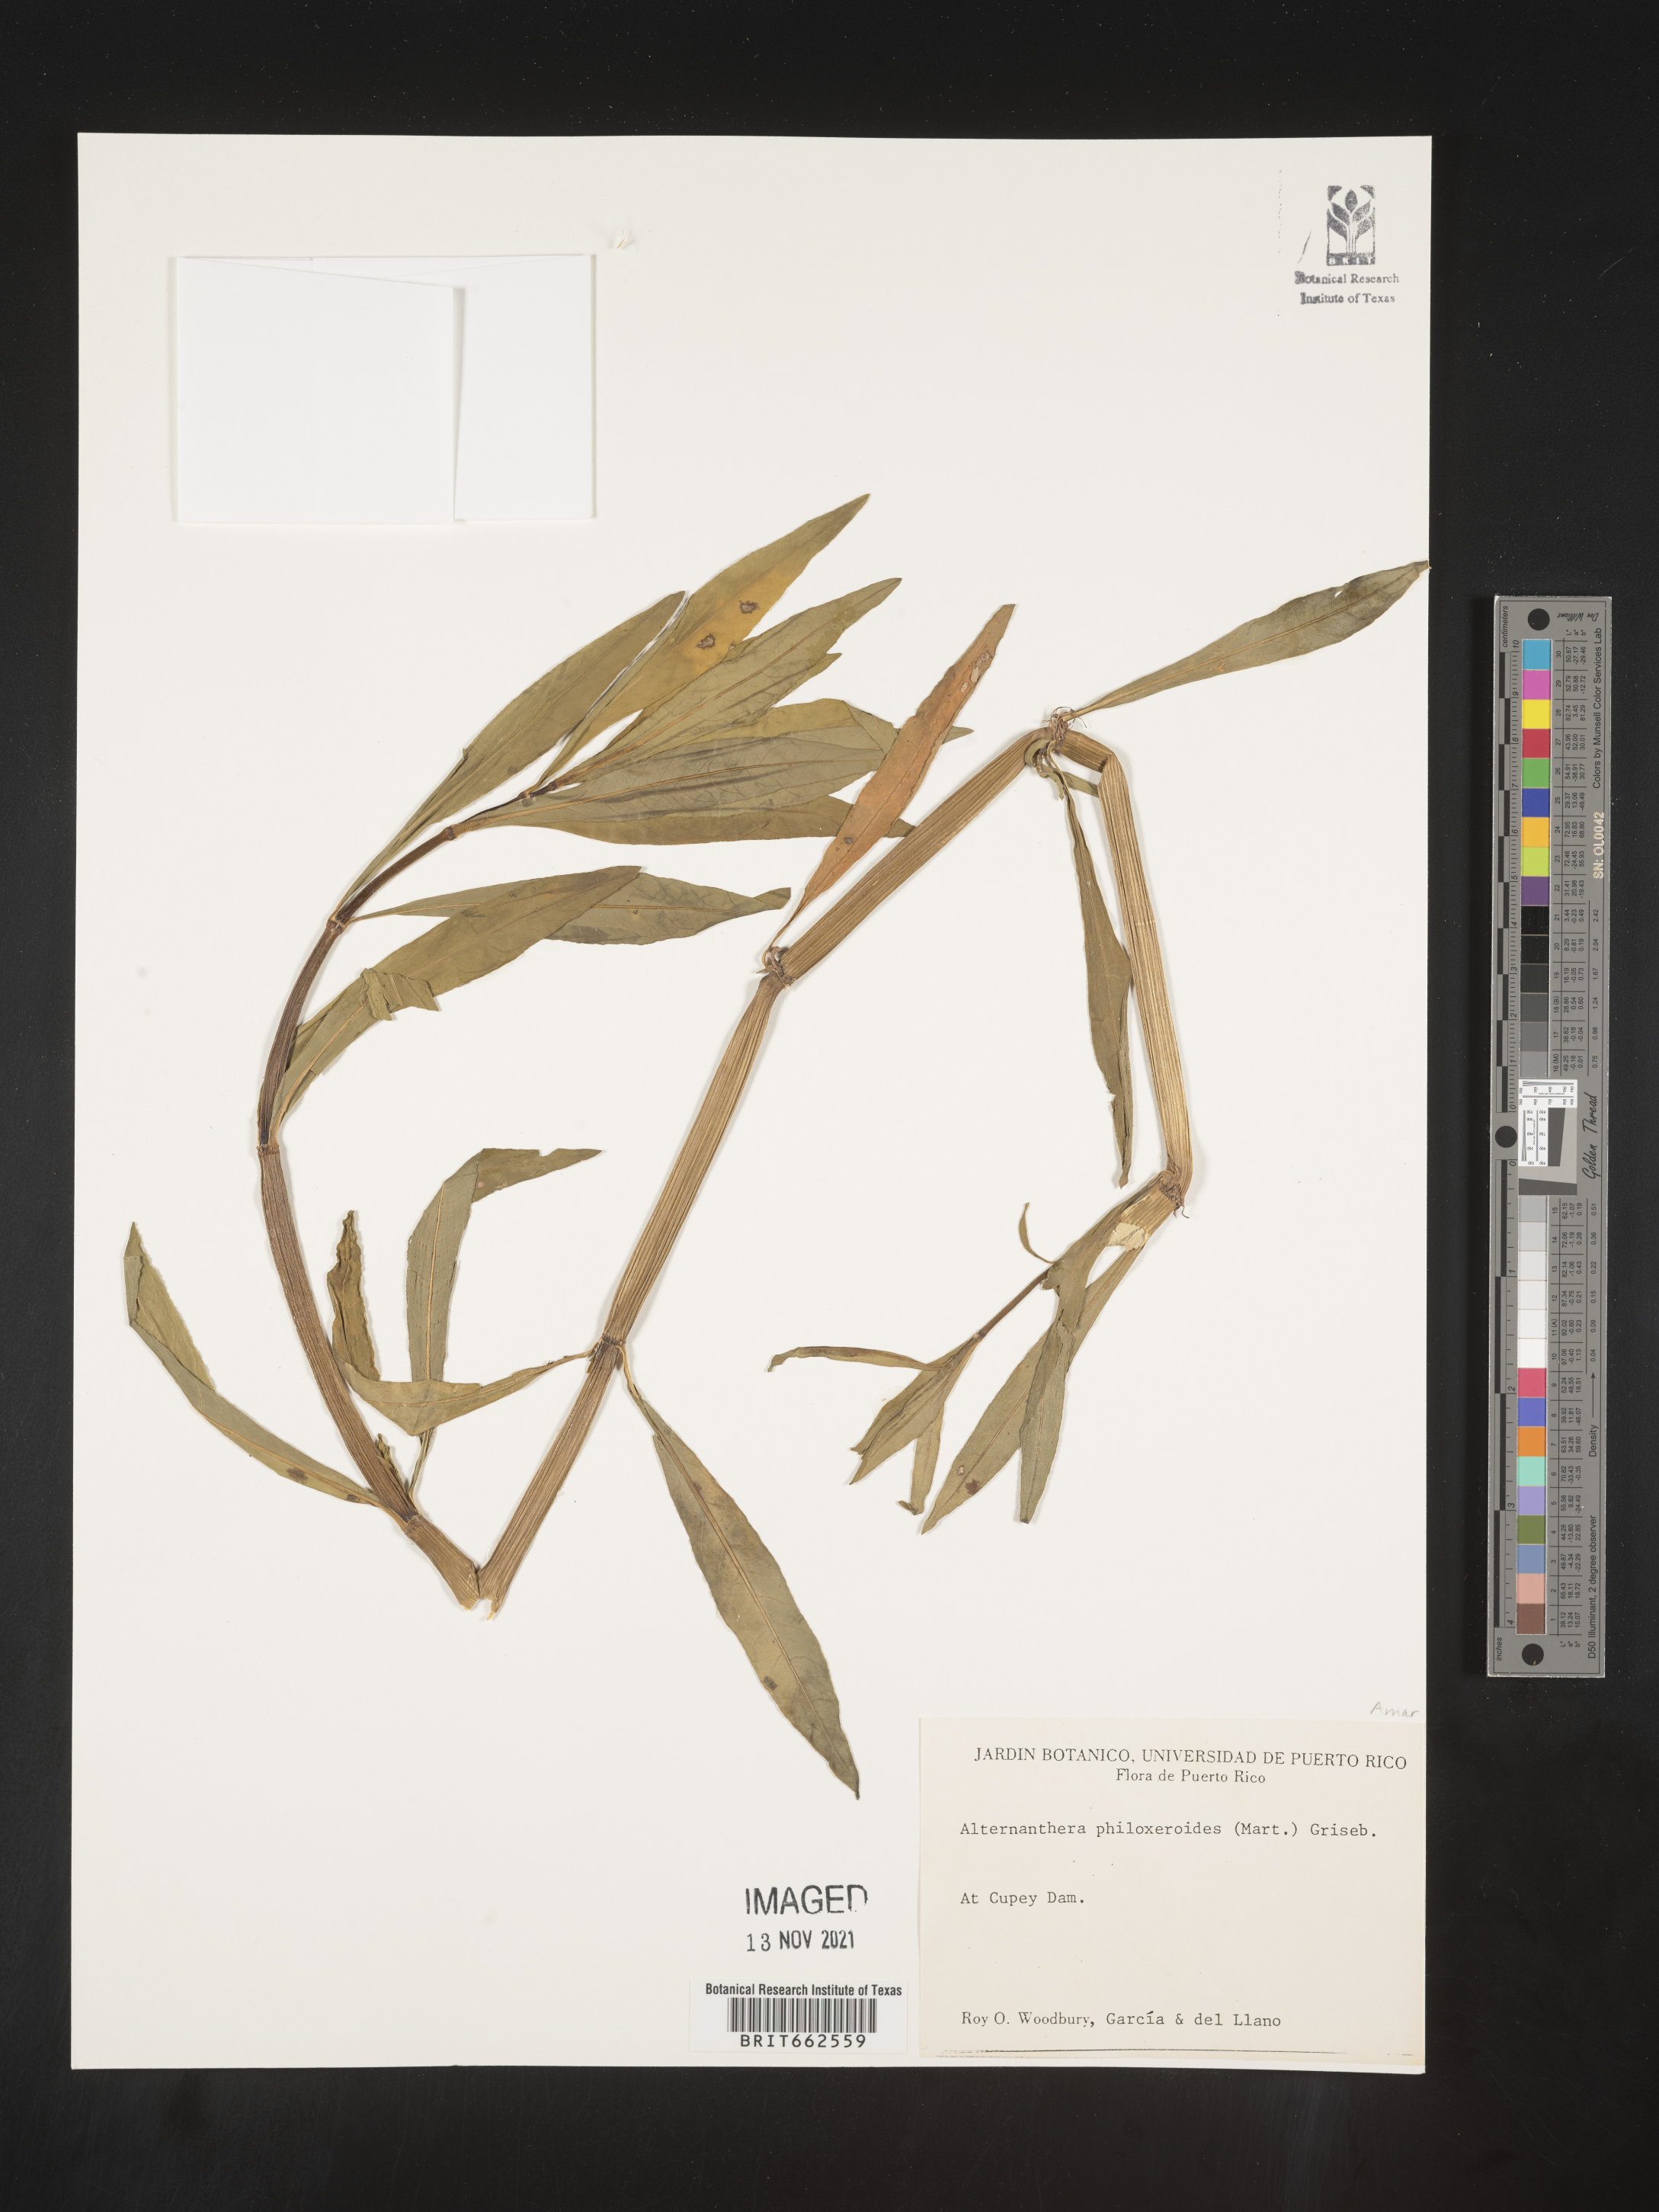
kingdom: Plantae
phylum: Tracheophyta
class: Magnoliopsida
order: Caryophyllales
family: Amaranthaceae
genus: Alternanthera
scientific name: Alternanthera
